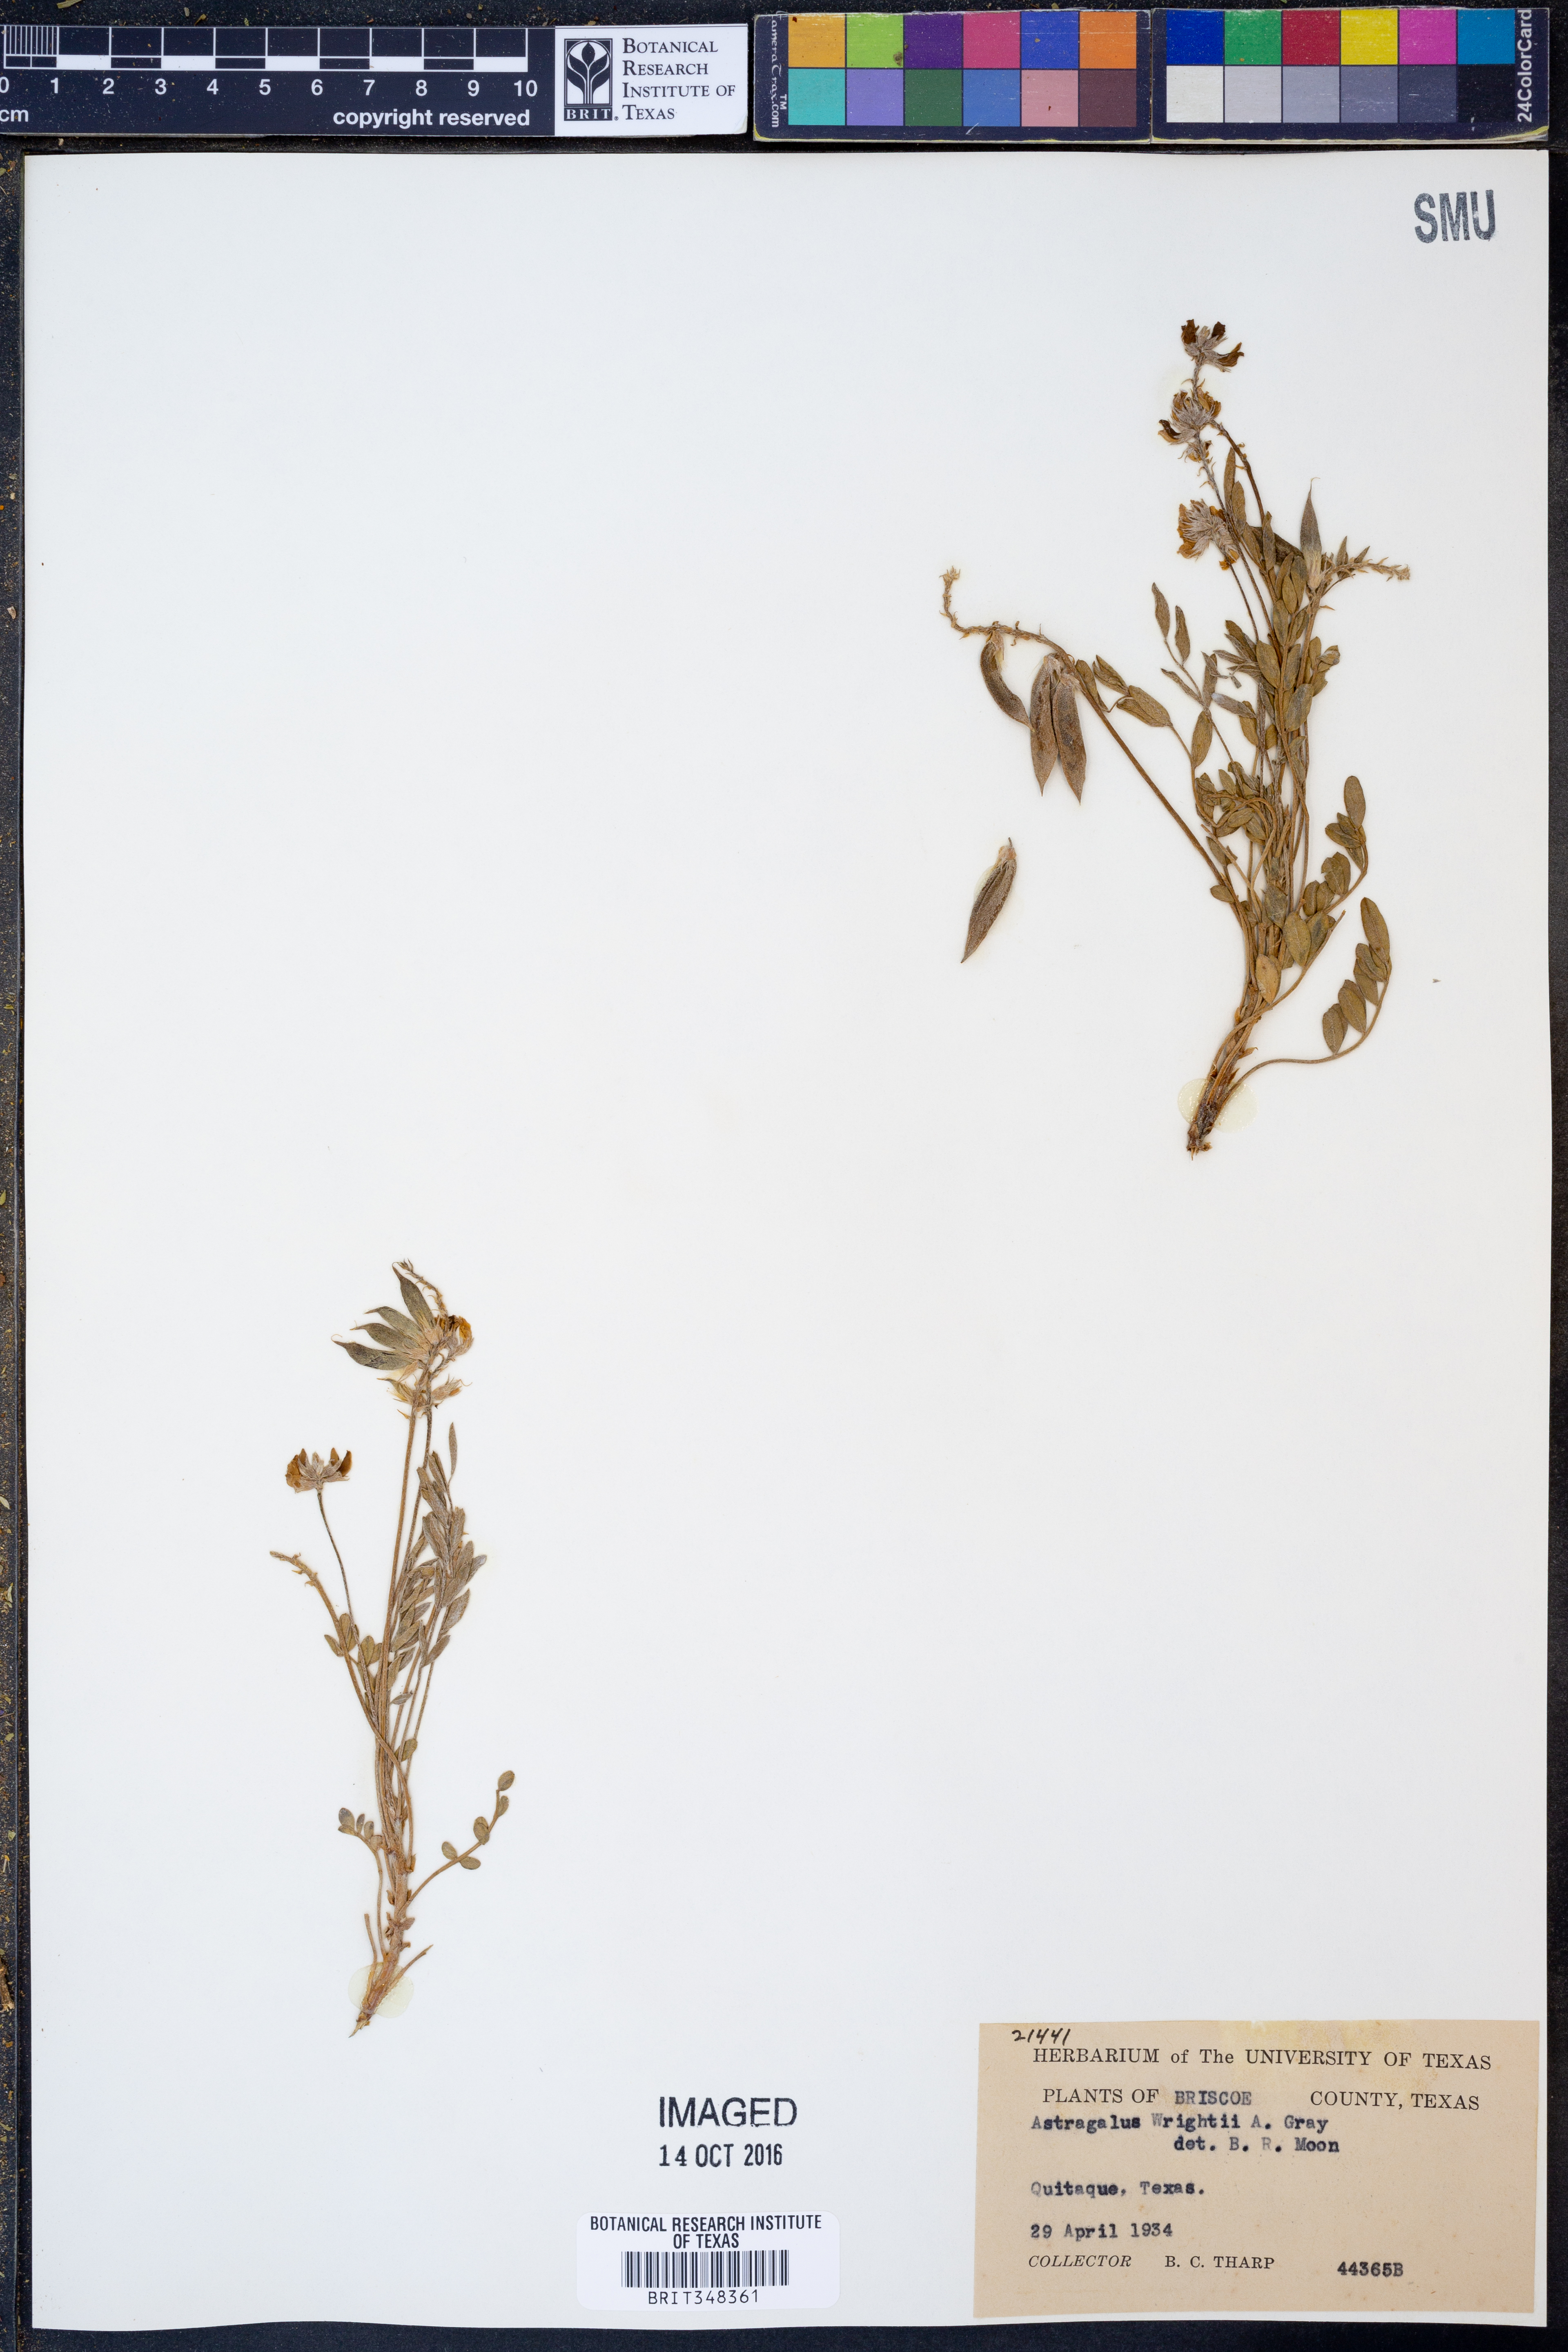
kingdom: Plantae
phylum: Tracheophyta
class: Magnoliopsida
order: Fabales
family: Fabaceae
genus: Astragalus
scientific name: Astragalus lotiflorus
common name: Lotus milk-vetch
